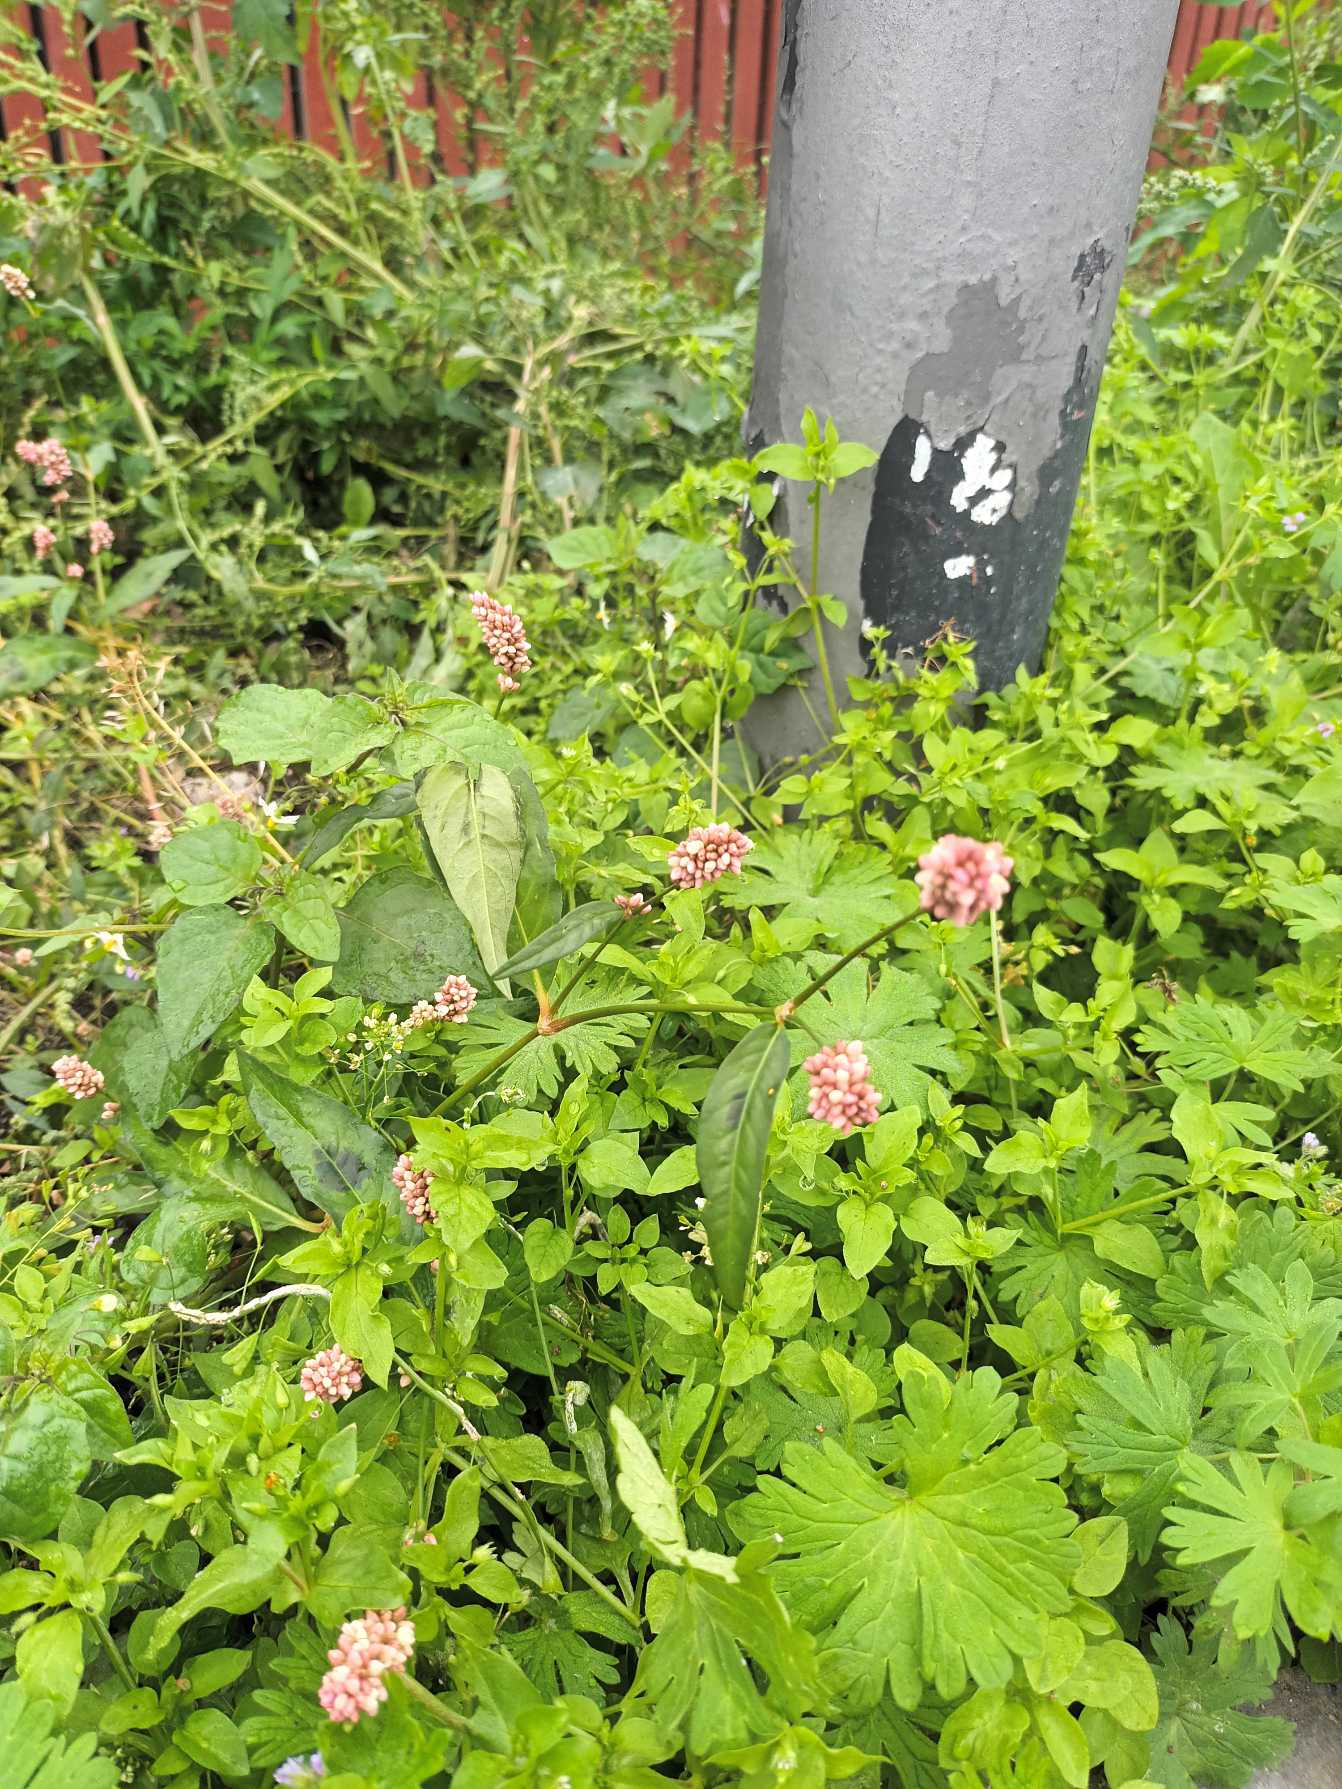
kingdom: Plantae
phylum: Tracheophyta
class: Magnoliopsida
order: Caryophyllales
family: Polygonaceae
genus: Persicaria
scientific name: Persicaria maculosa
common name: Fersken-pileurt
